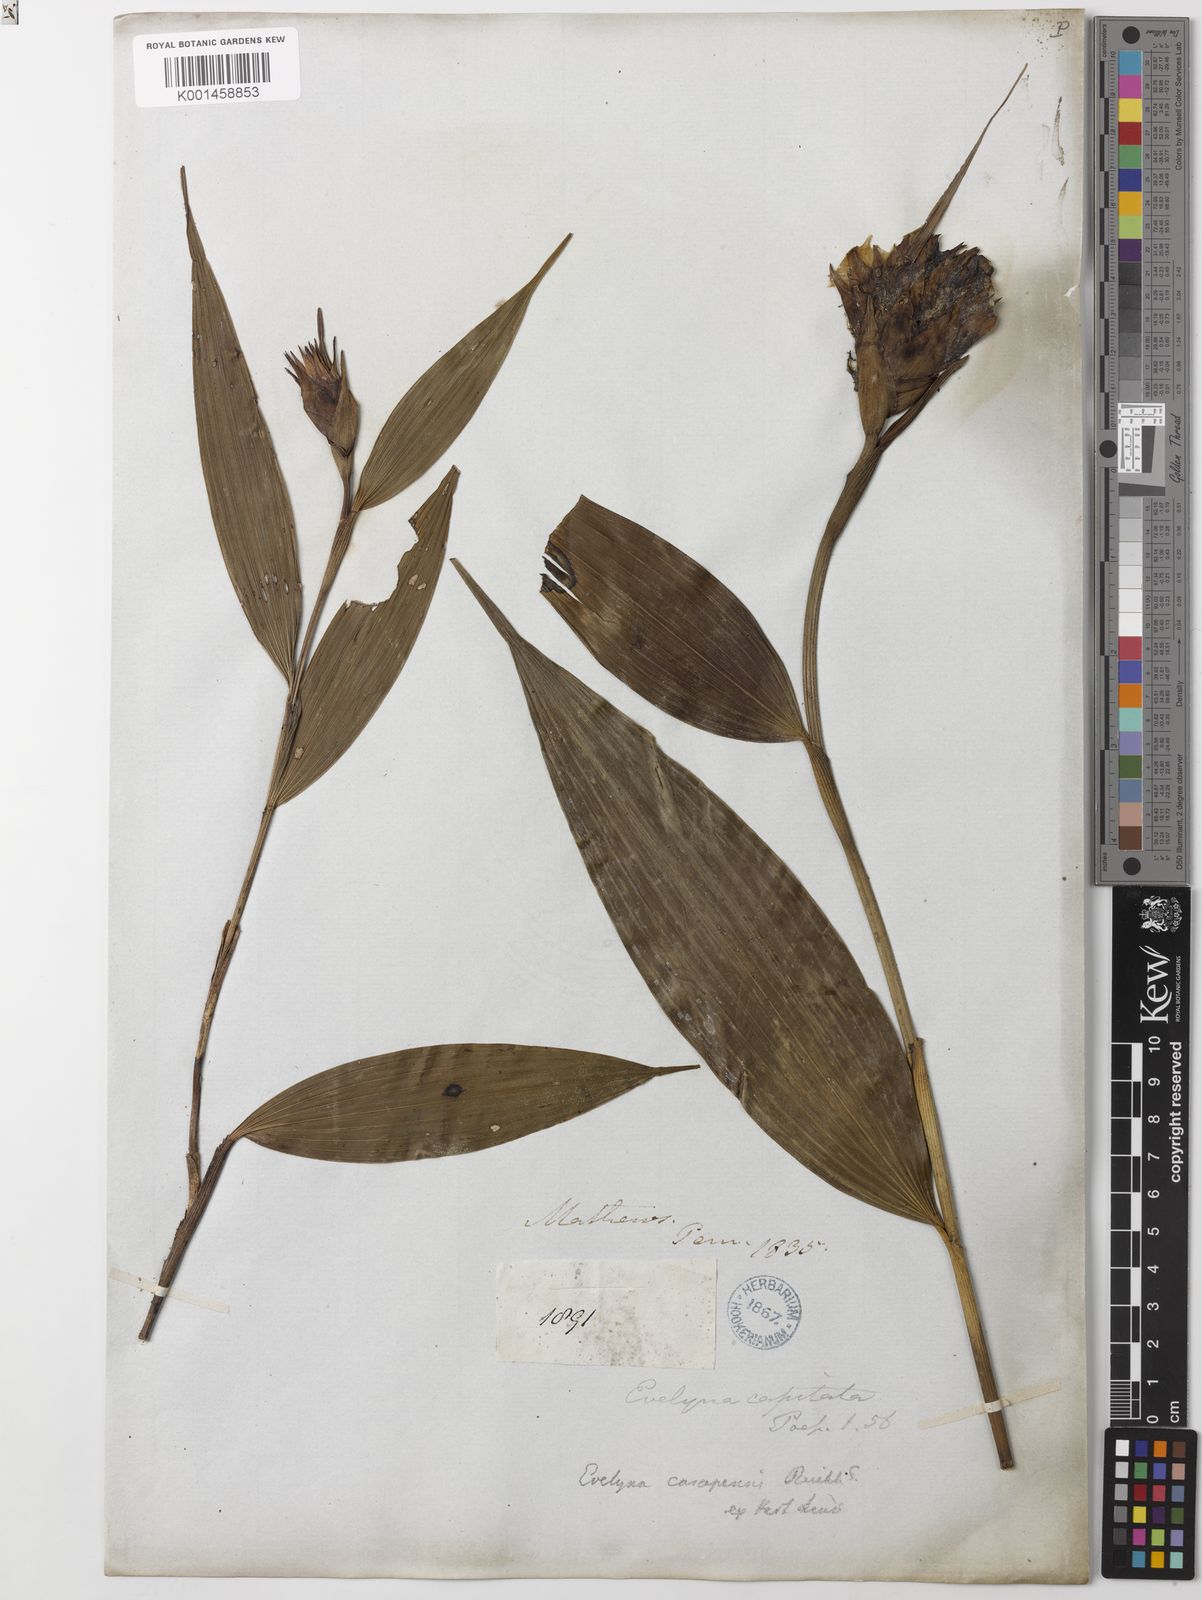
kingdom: Plantae
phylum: Tracheophyta
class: Liliopsida
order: Asparagales
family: Orchidaceae
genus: Elleanthus
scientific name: Elleanthus
